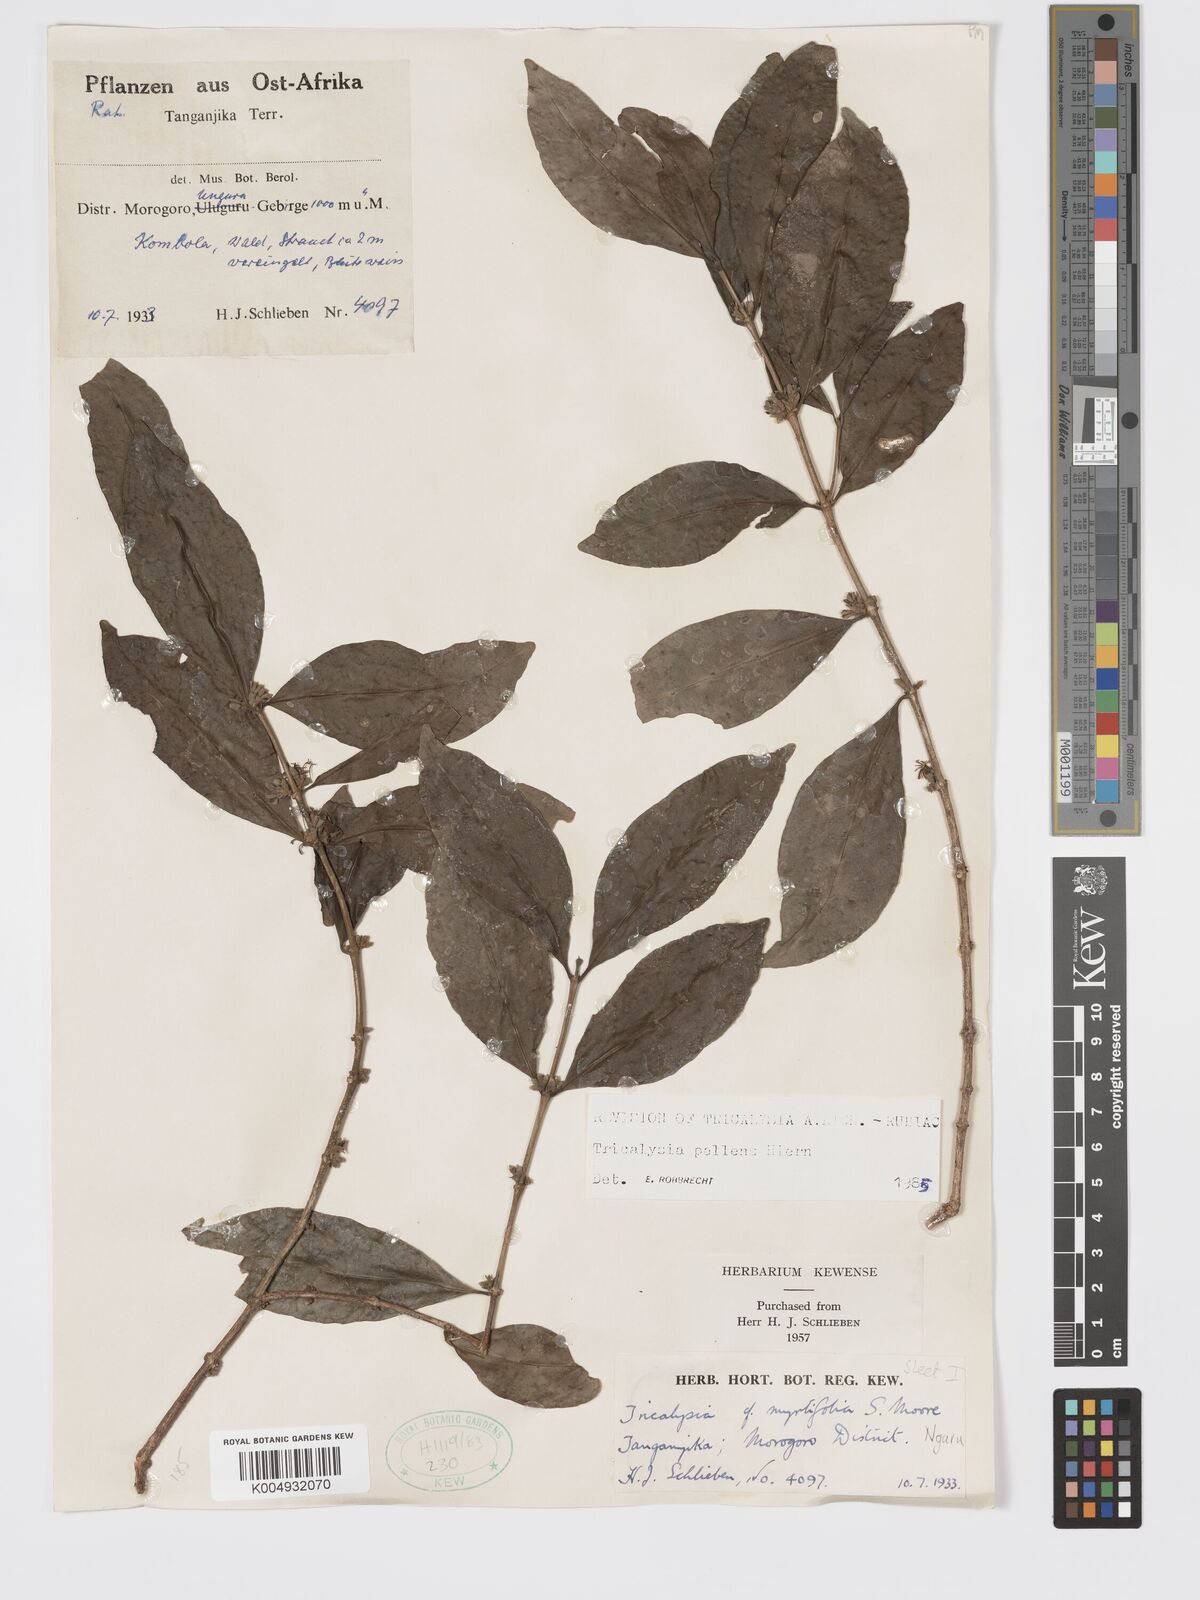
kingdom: Plantae
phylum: Tracheophyta
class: Magnoliopsida
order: Gentianales
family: Rubiaceae
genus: Tricalysia
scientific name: Tricalysia pallens
